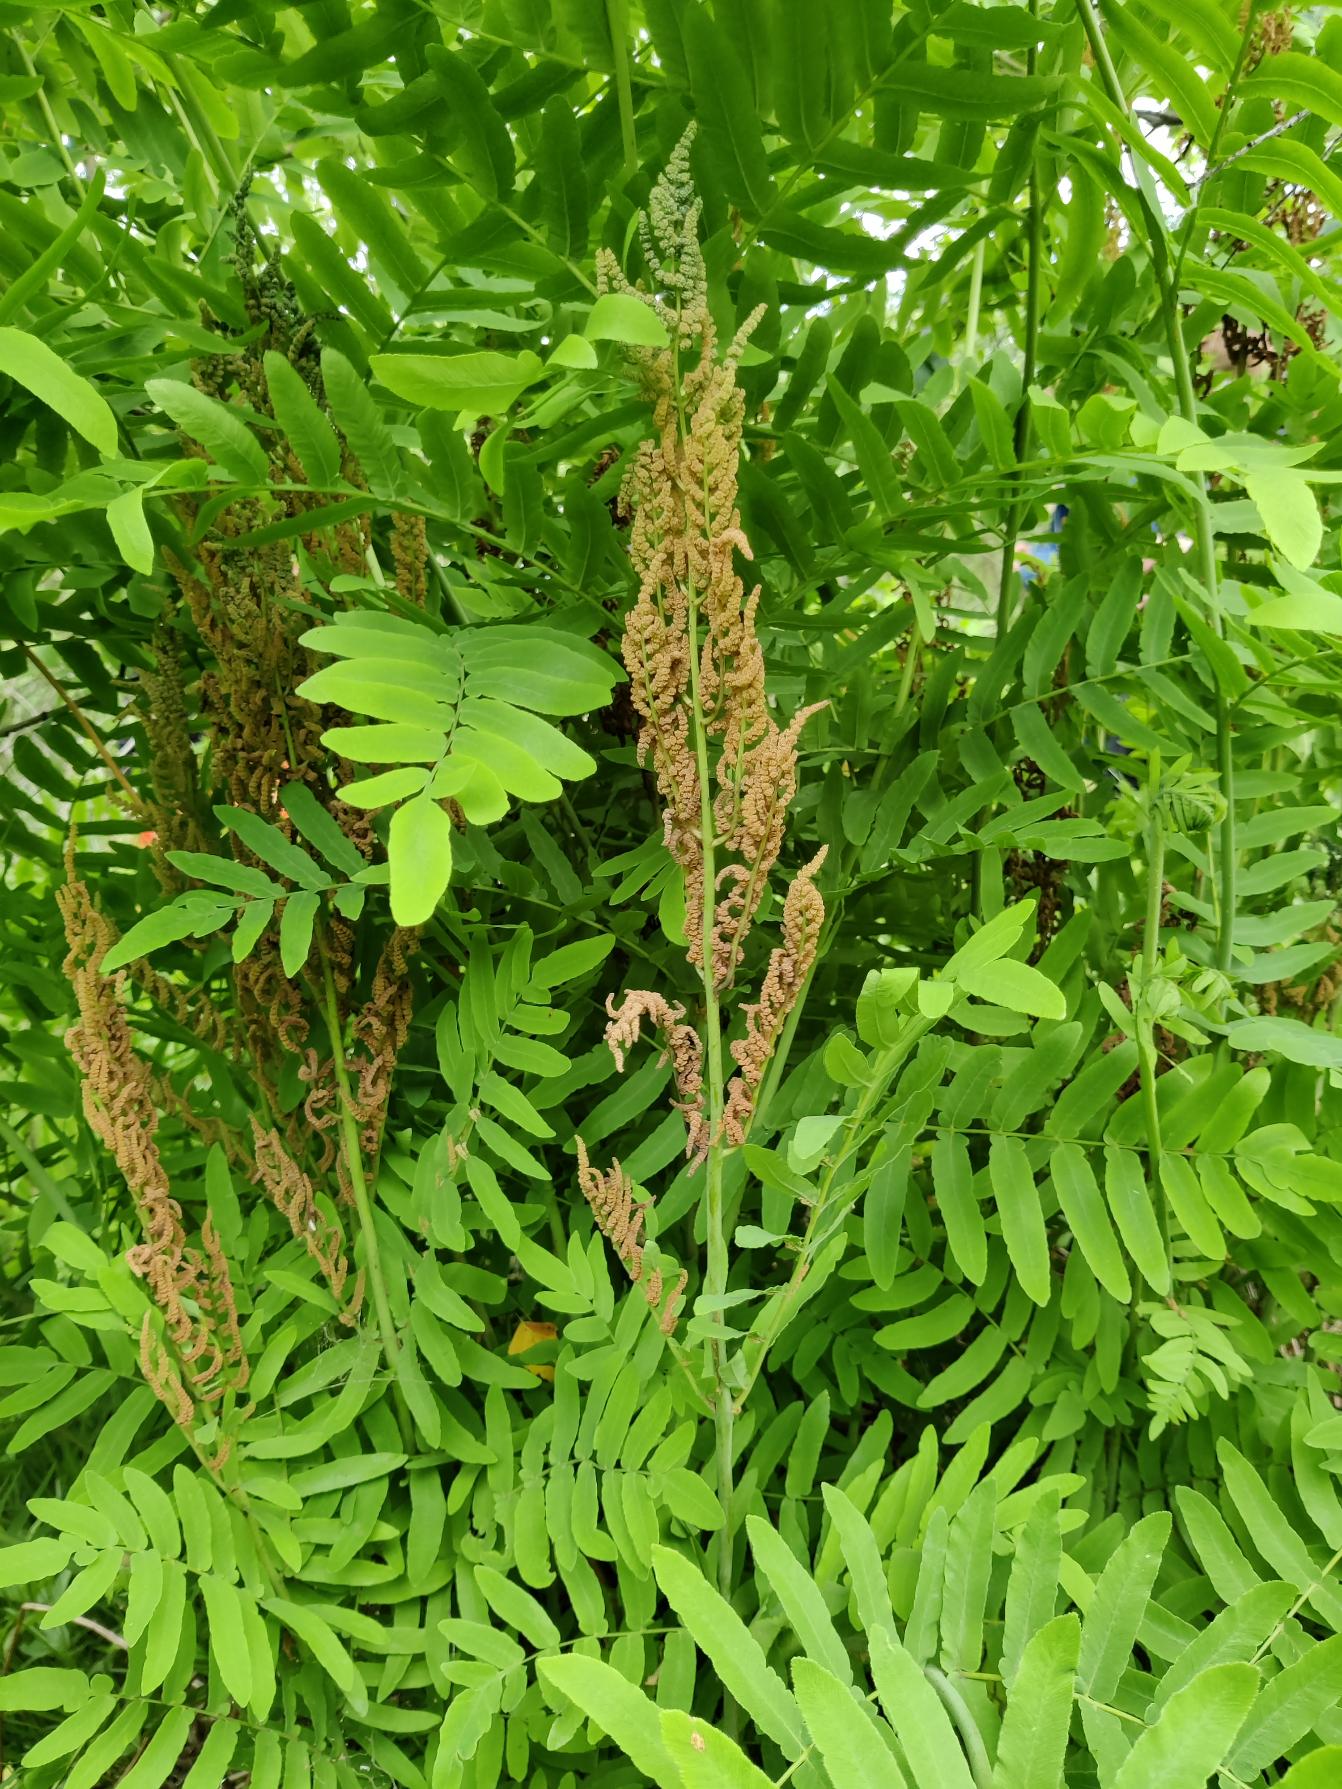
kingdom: Plantae
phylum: Tracheophyta
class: Polypodiopsida
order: Osmundales
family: Osmundaceae
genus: Osmunda
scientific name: Osmunda regalis
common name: Kongebregne
